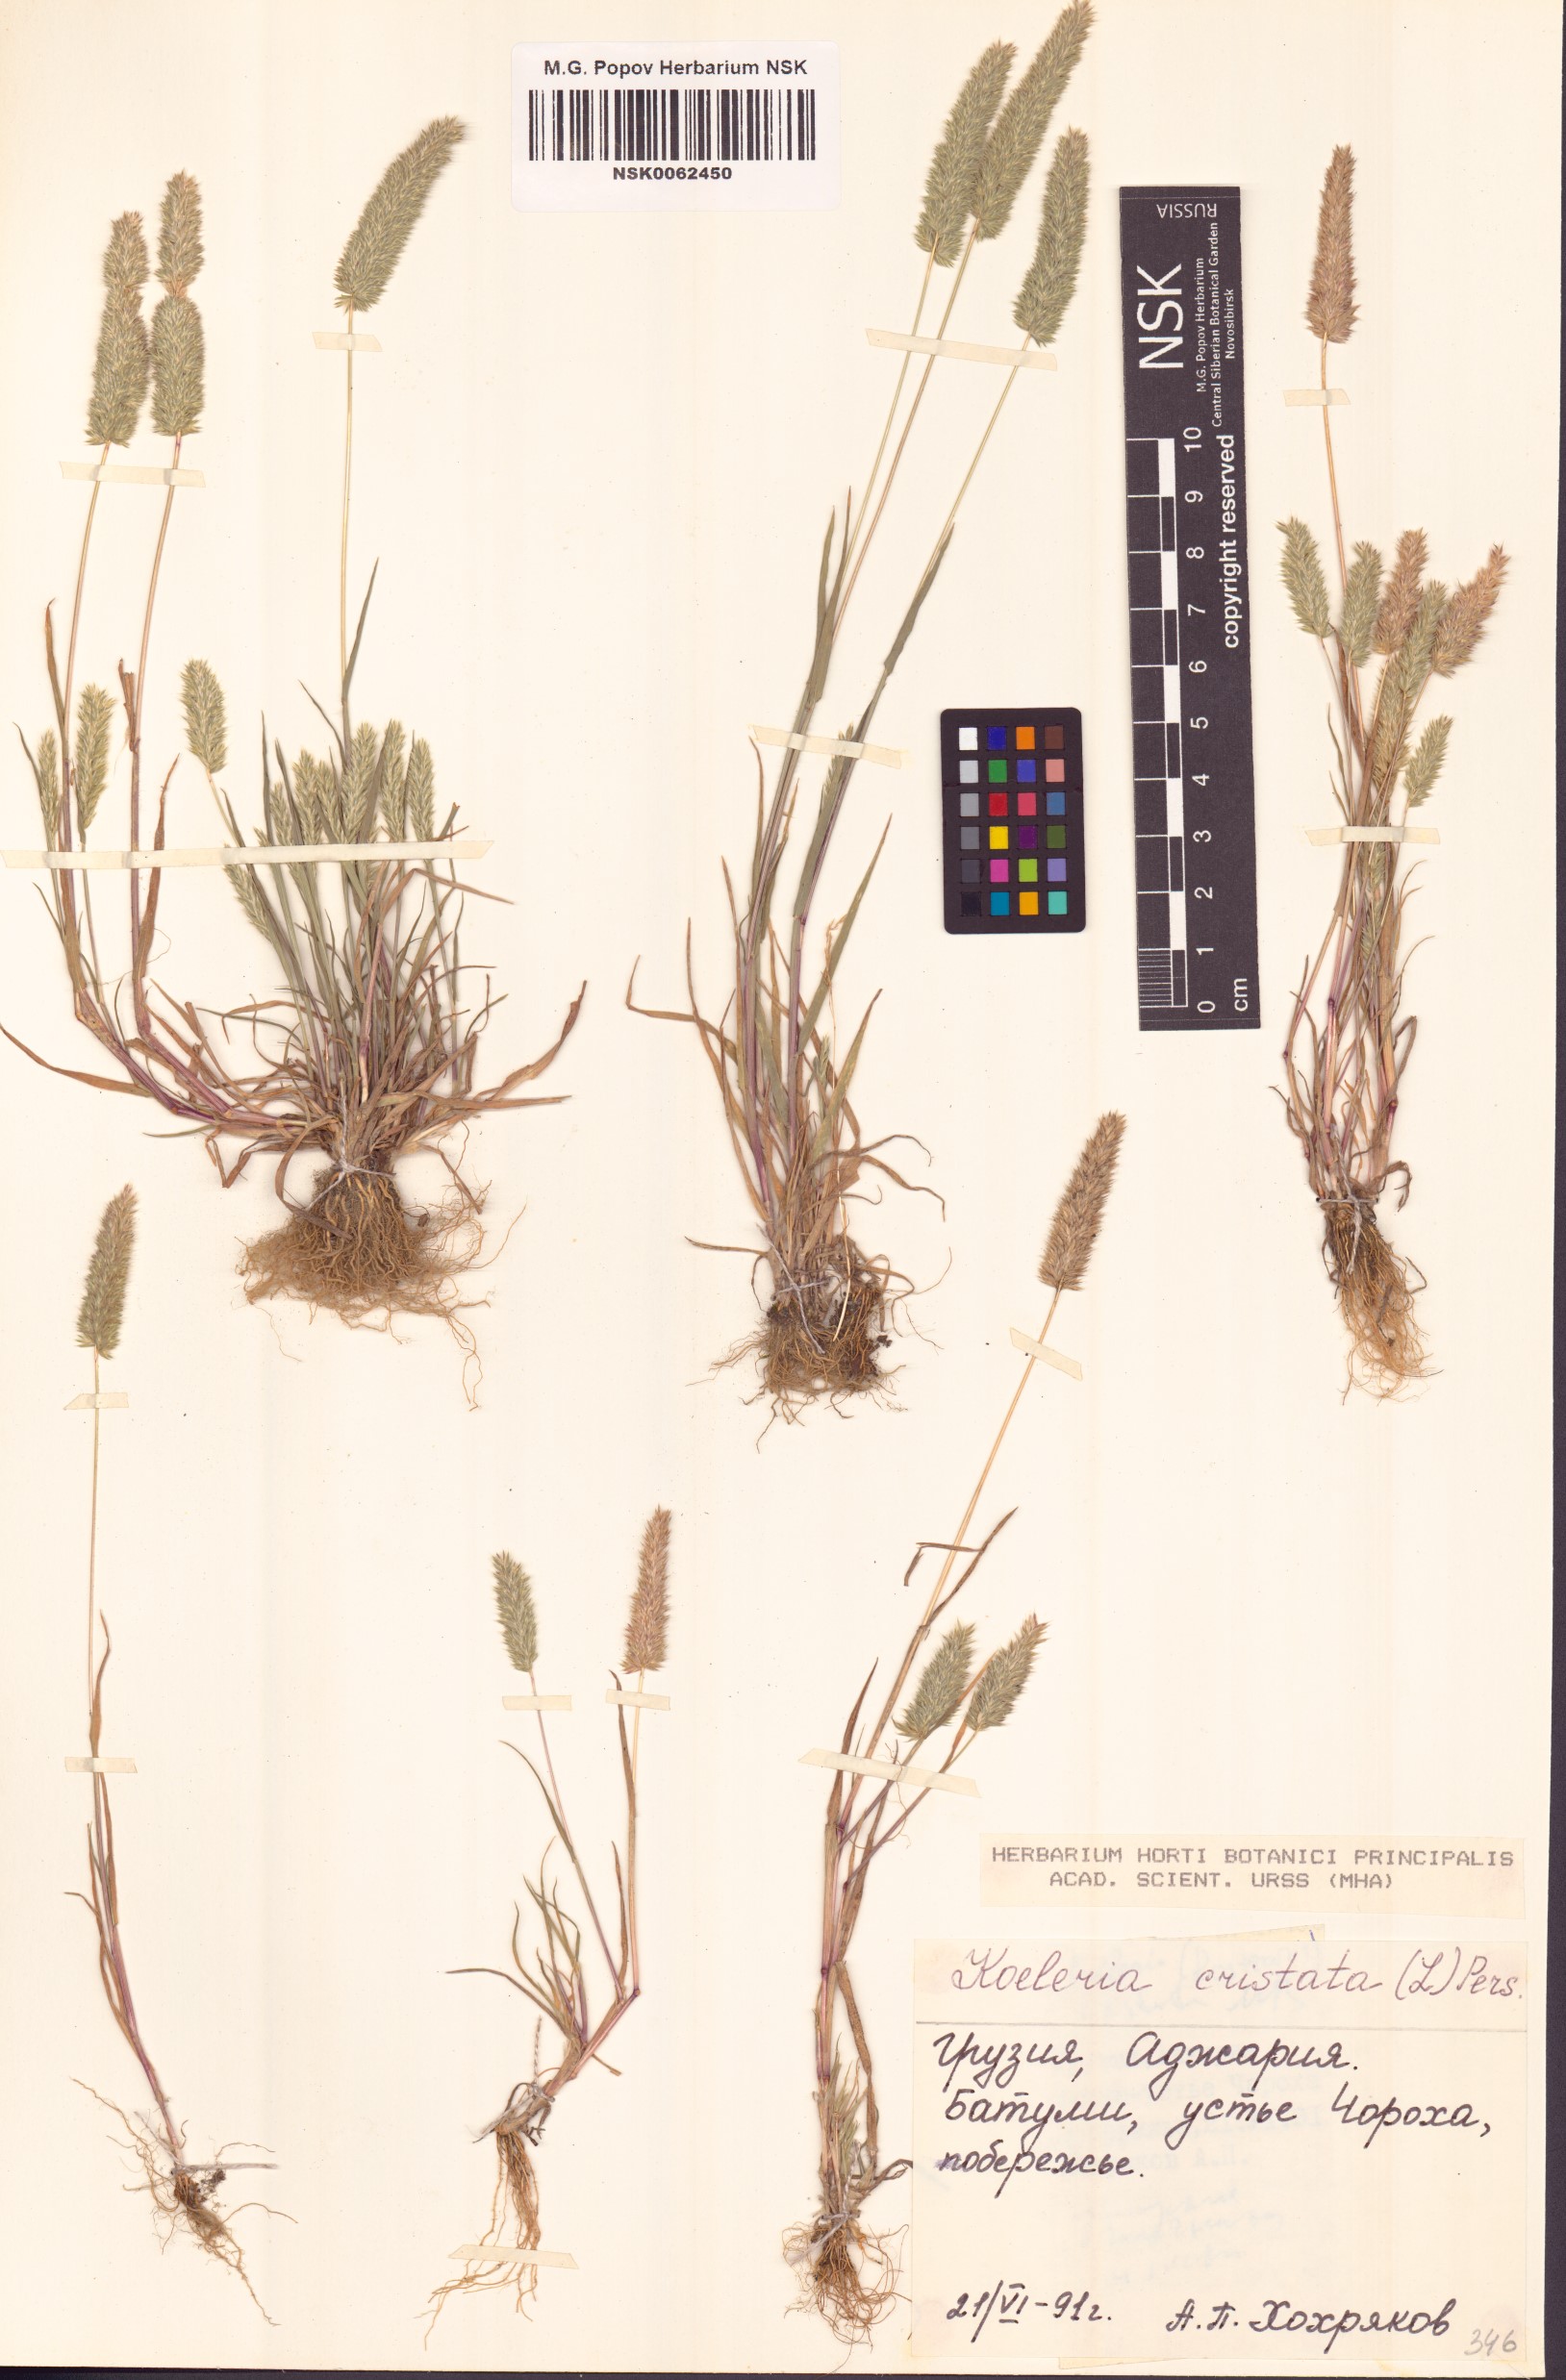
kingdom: Plantae
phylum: Tracheophyta
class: Liliopsida
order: Poales
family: Poaceae
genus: Koeleria
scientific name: Koeleria pyramidata
